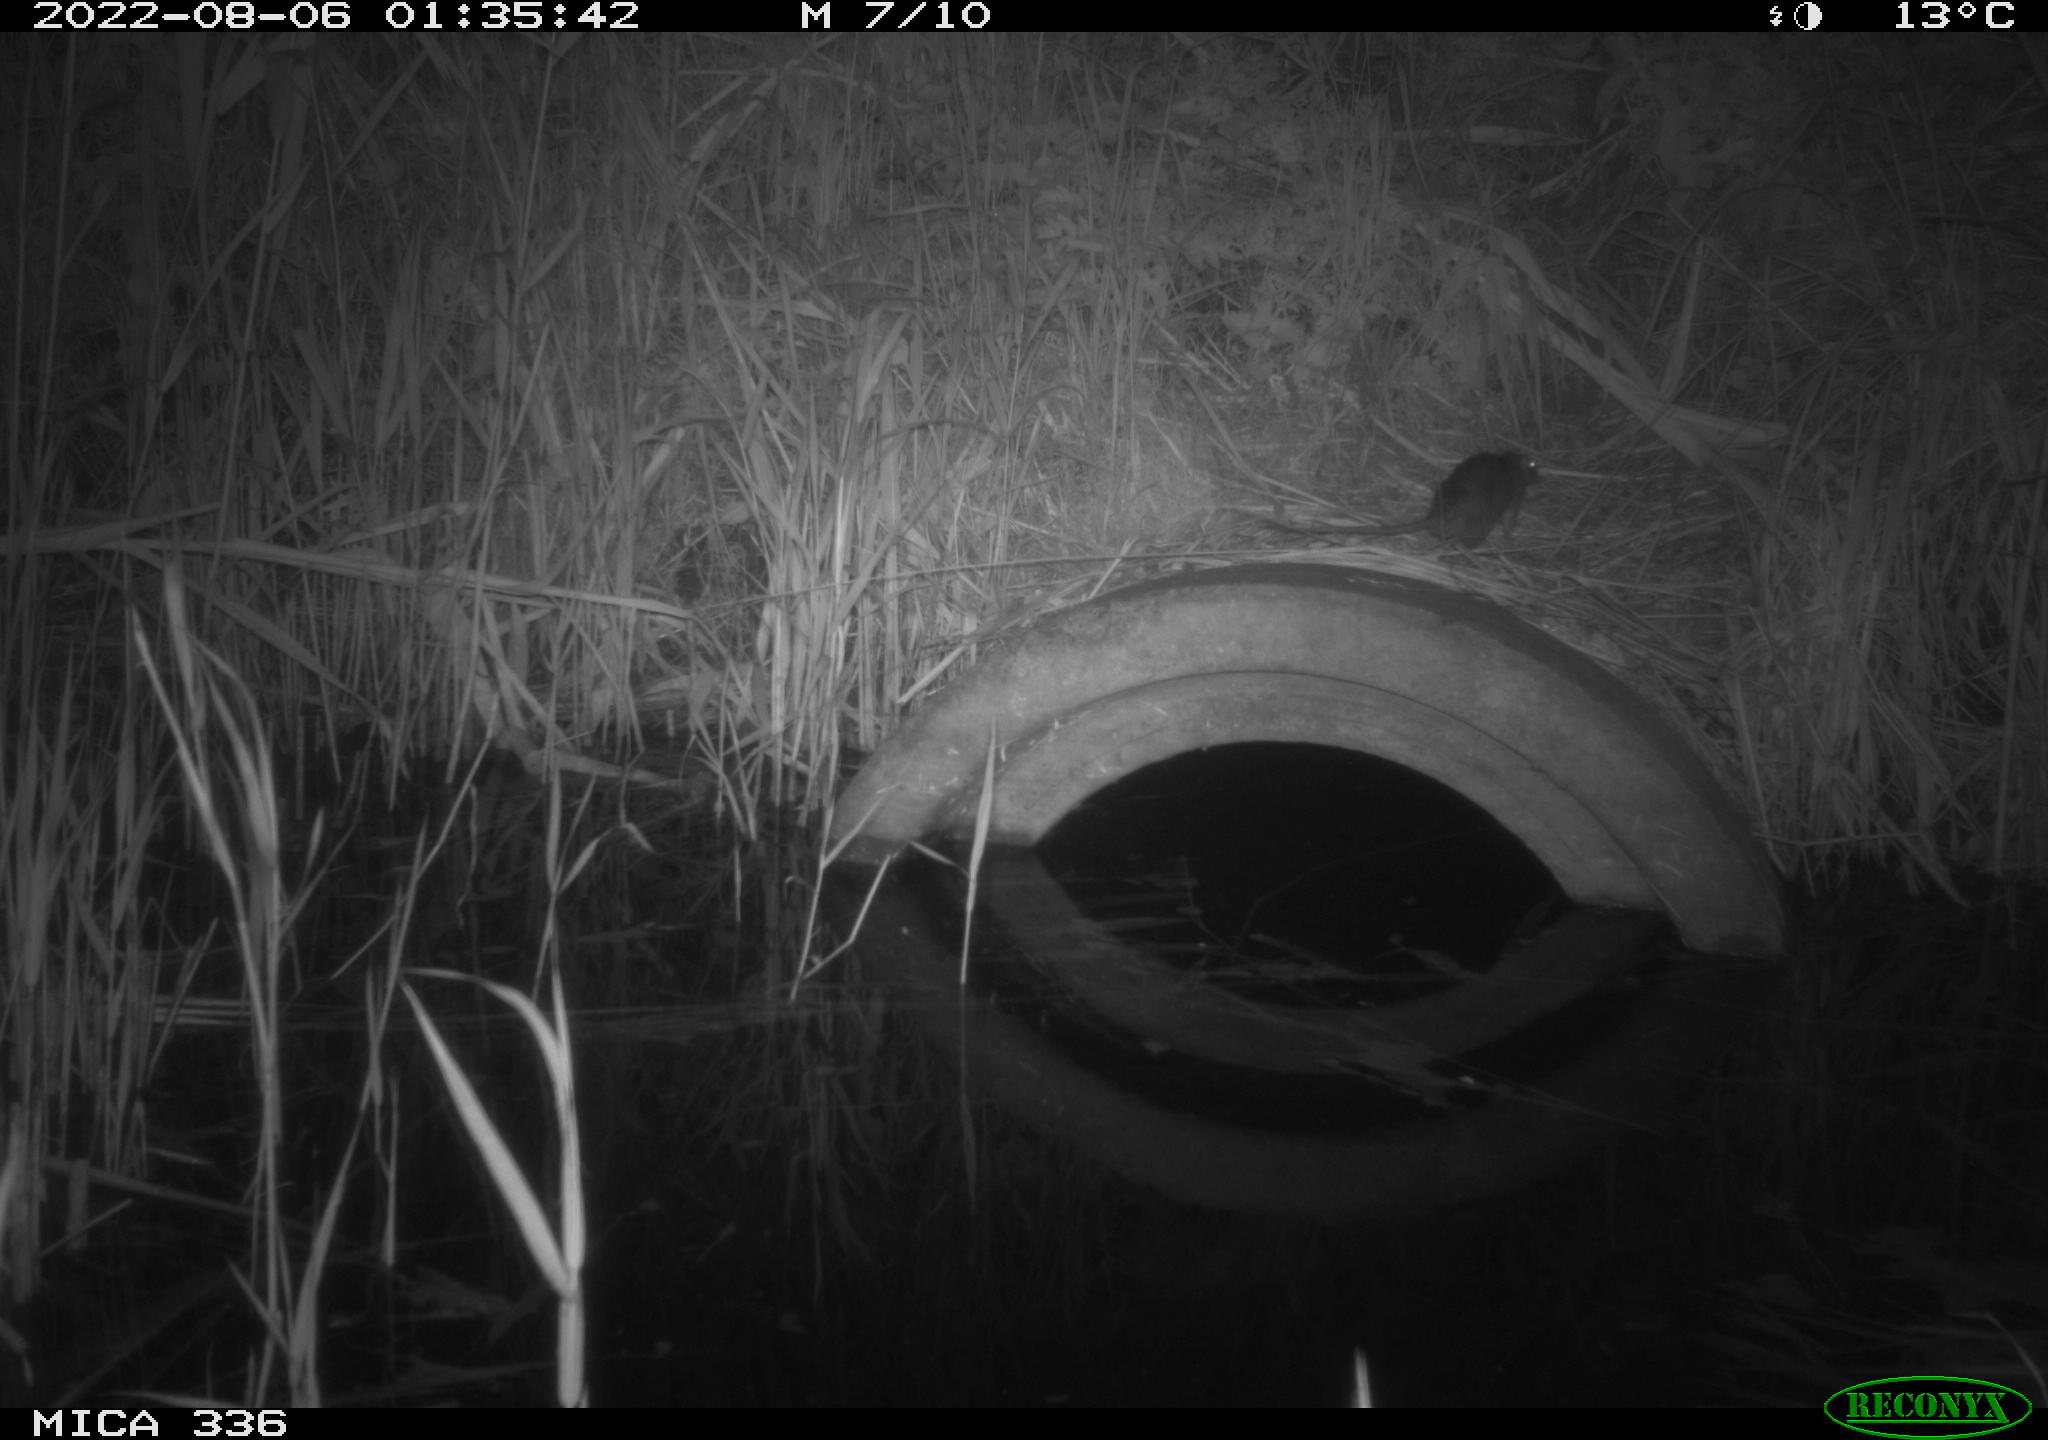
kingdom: Animalia
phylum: Chordata
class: Mammalia
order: Rodentia
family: Muridae
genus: Rattus
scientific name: Rattus norvegicus
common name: Brown rat
